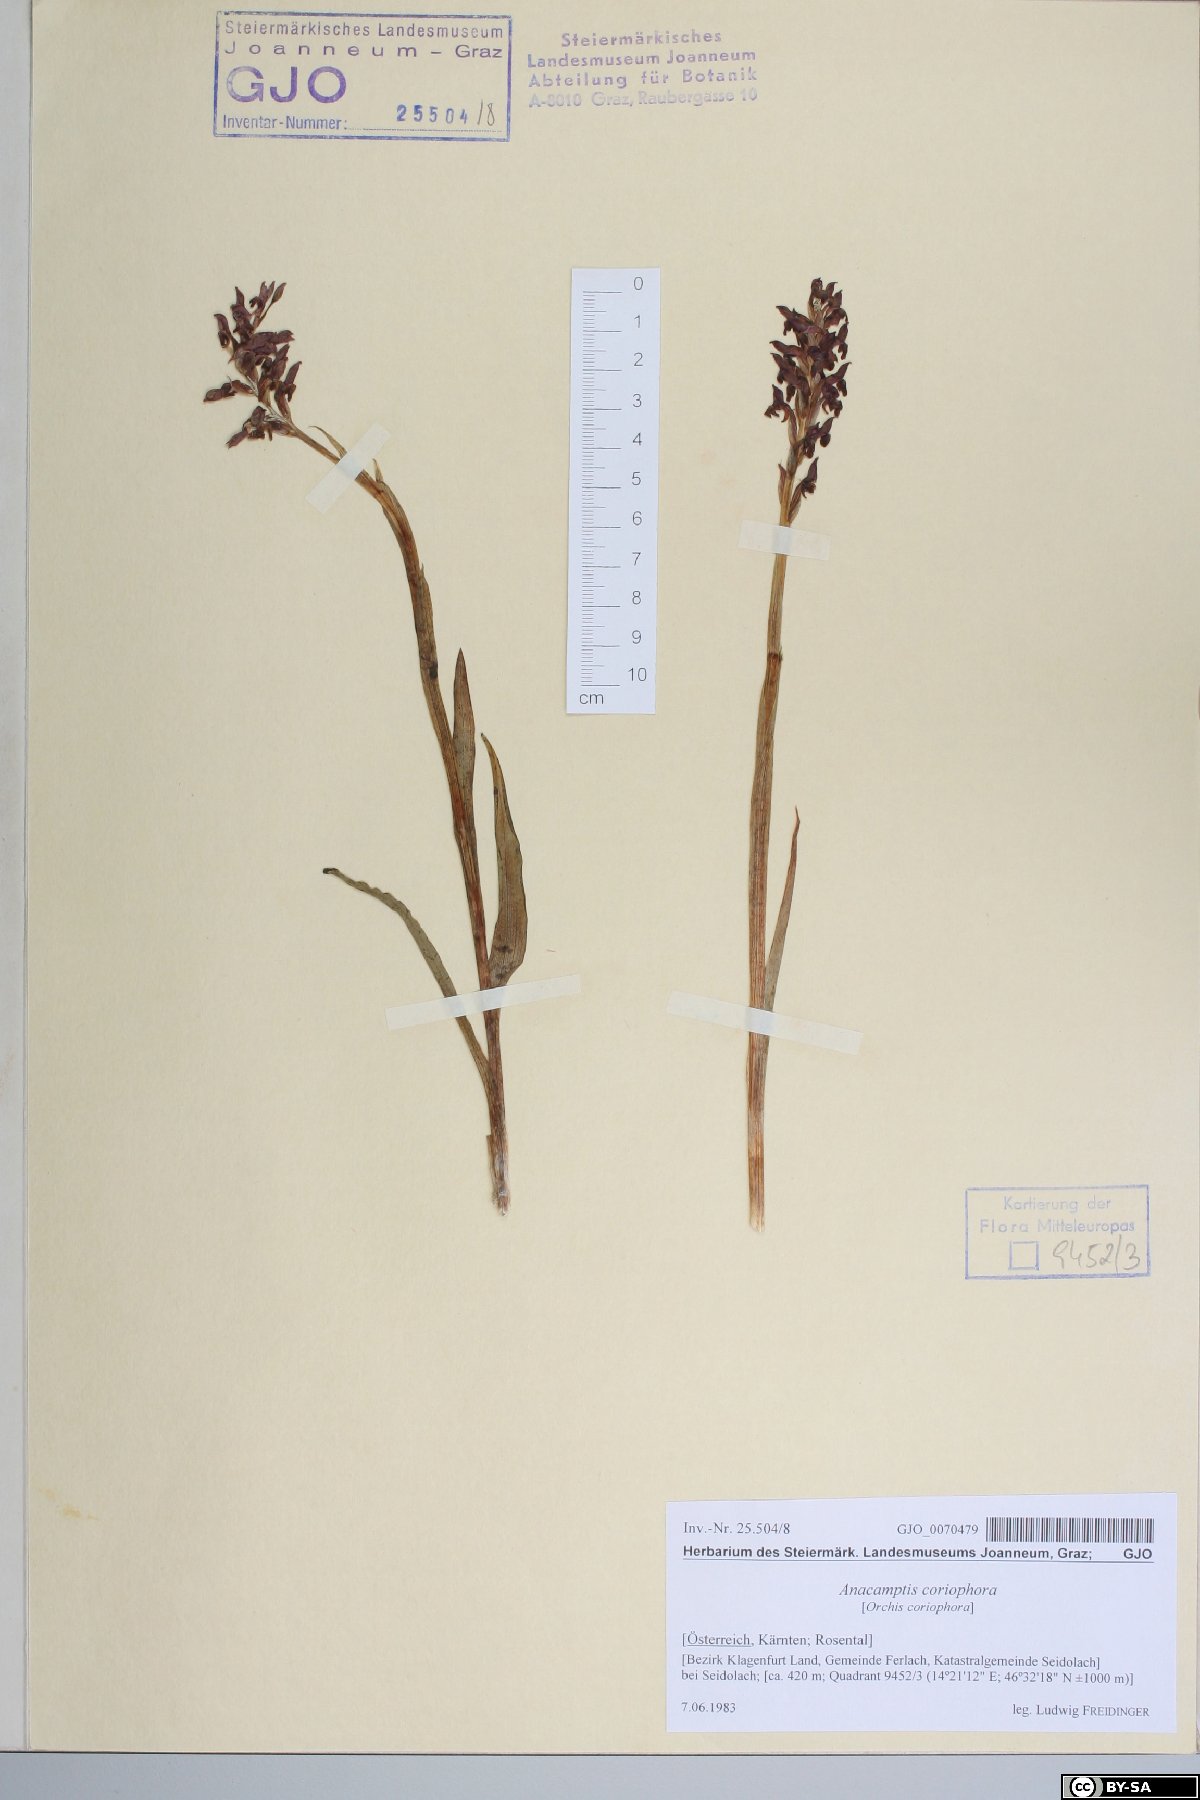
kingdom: Plantae
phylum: Tracheophyta
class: Liliopsida
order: Asparagales
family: Orchidaceae
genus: Anacamptis
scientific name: Anacamptis coriophora
